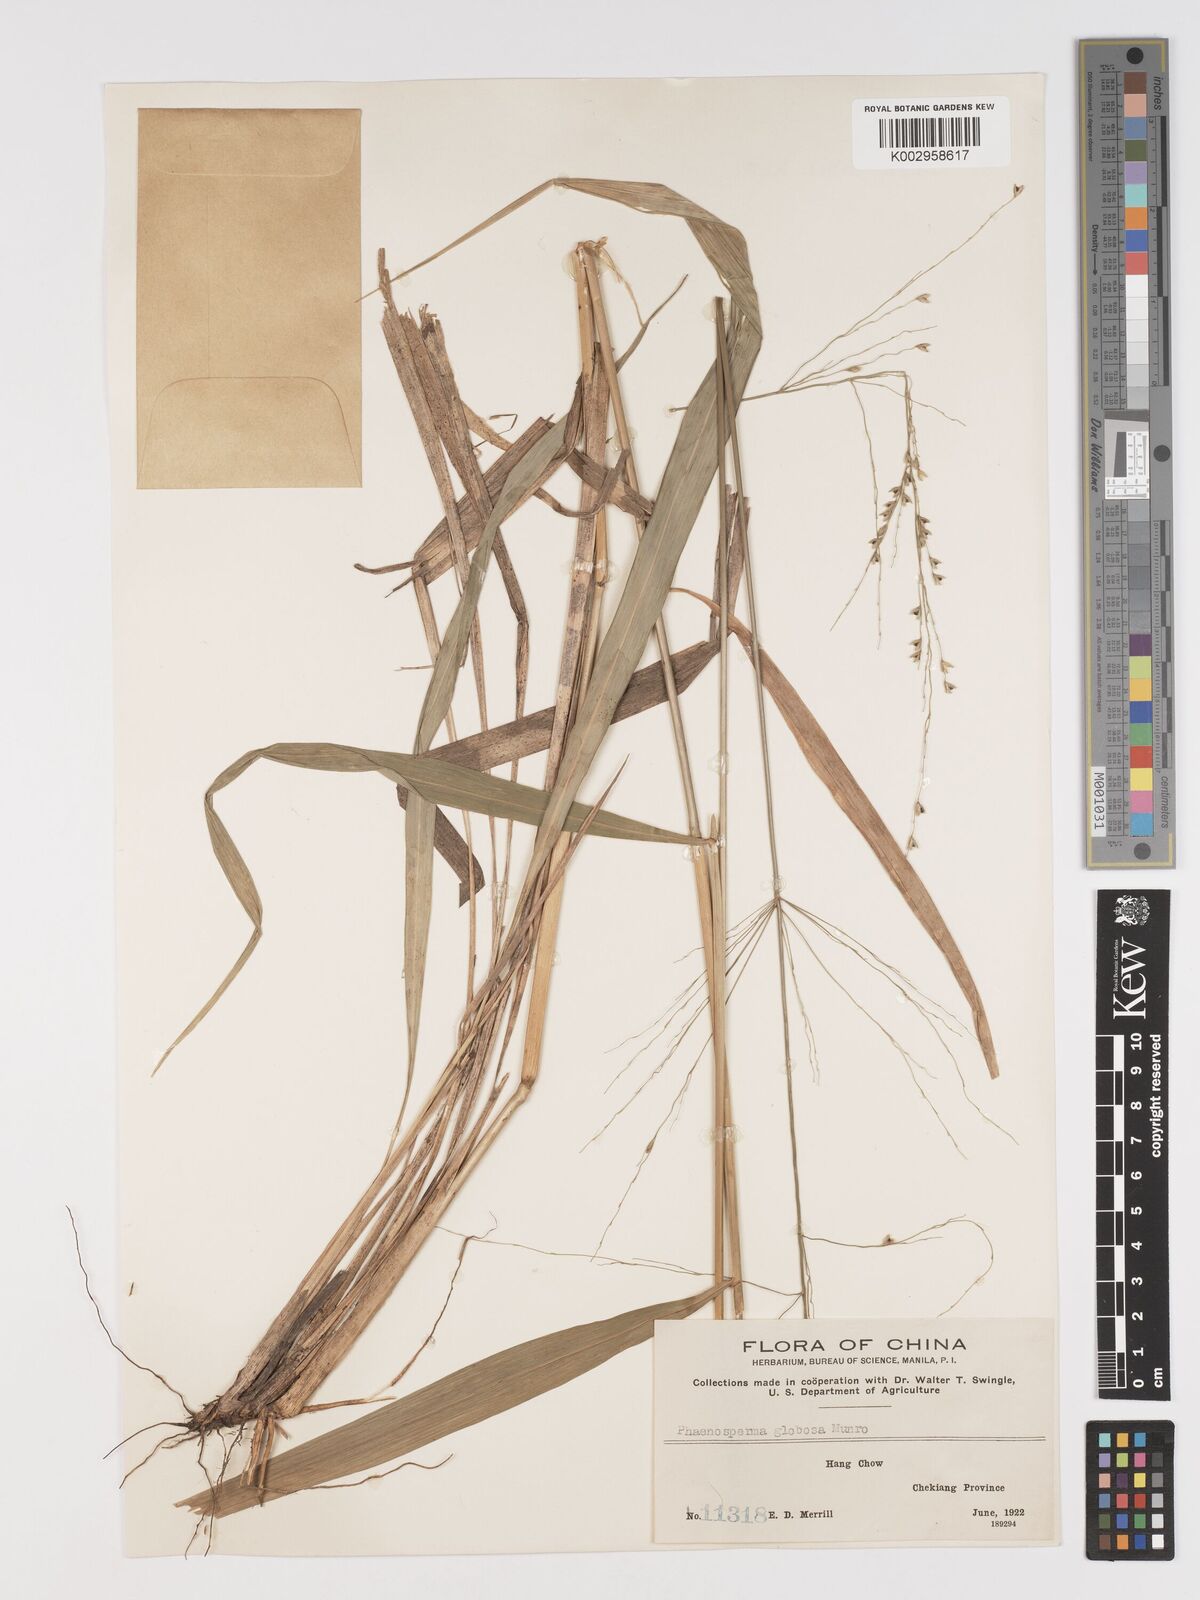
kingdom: Plantae
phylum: Tracheophyta
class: Liliopsida
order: Poales
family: Poaceae
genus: Phaenosperma
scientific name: Phaenosperma globosum
